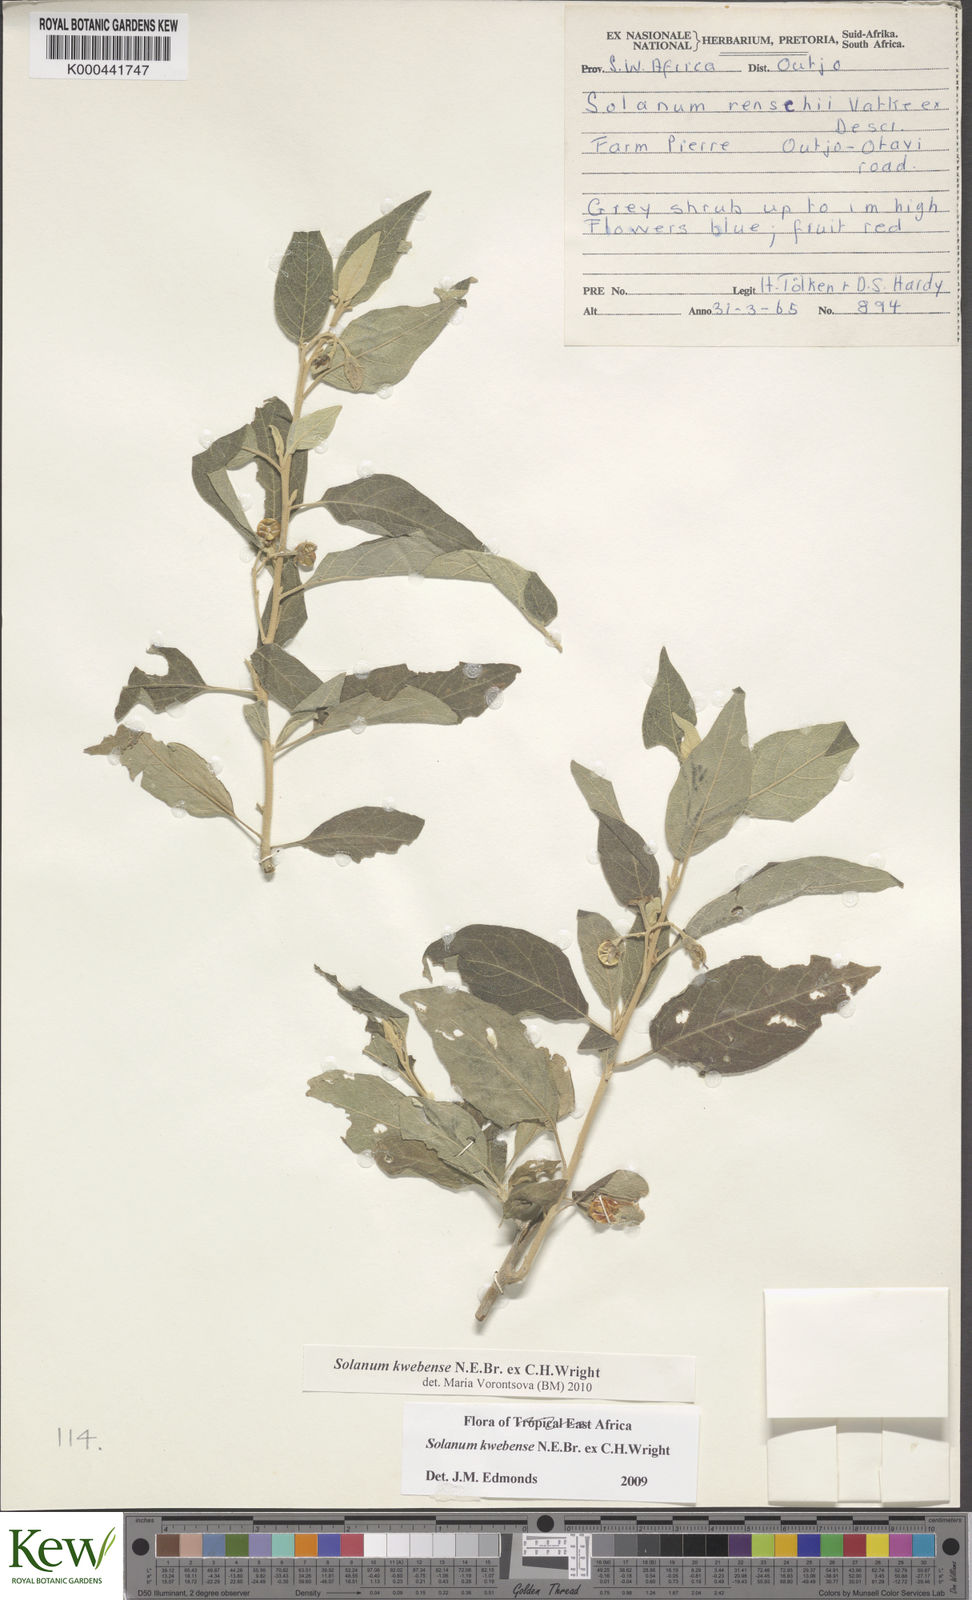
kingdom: Plantae
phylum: Tracheophyta
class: Magnoliopsida
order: Solanales
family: Solanaceae
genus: Solanum
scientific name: Solanum tettense
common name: Mozambique bitter apple
